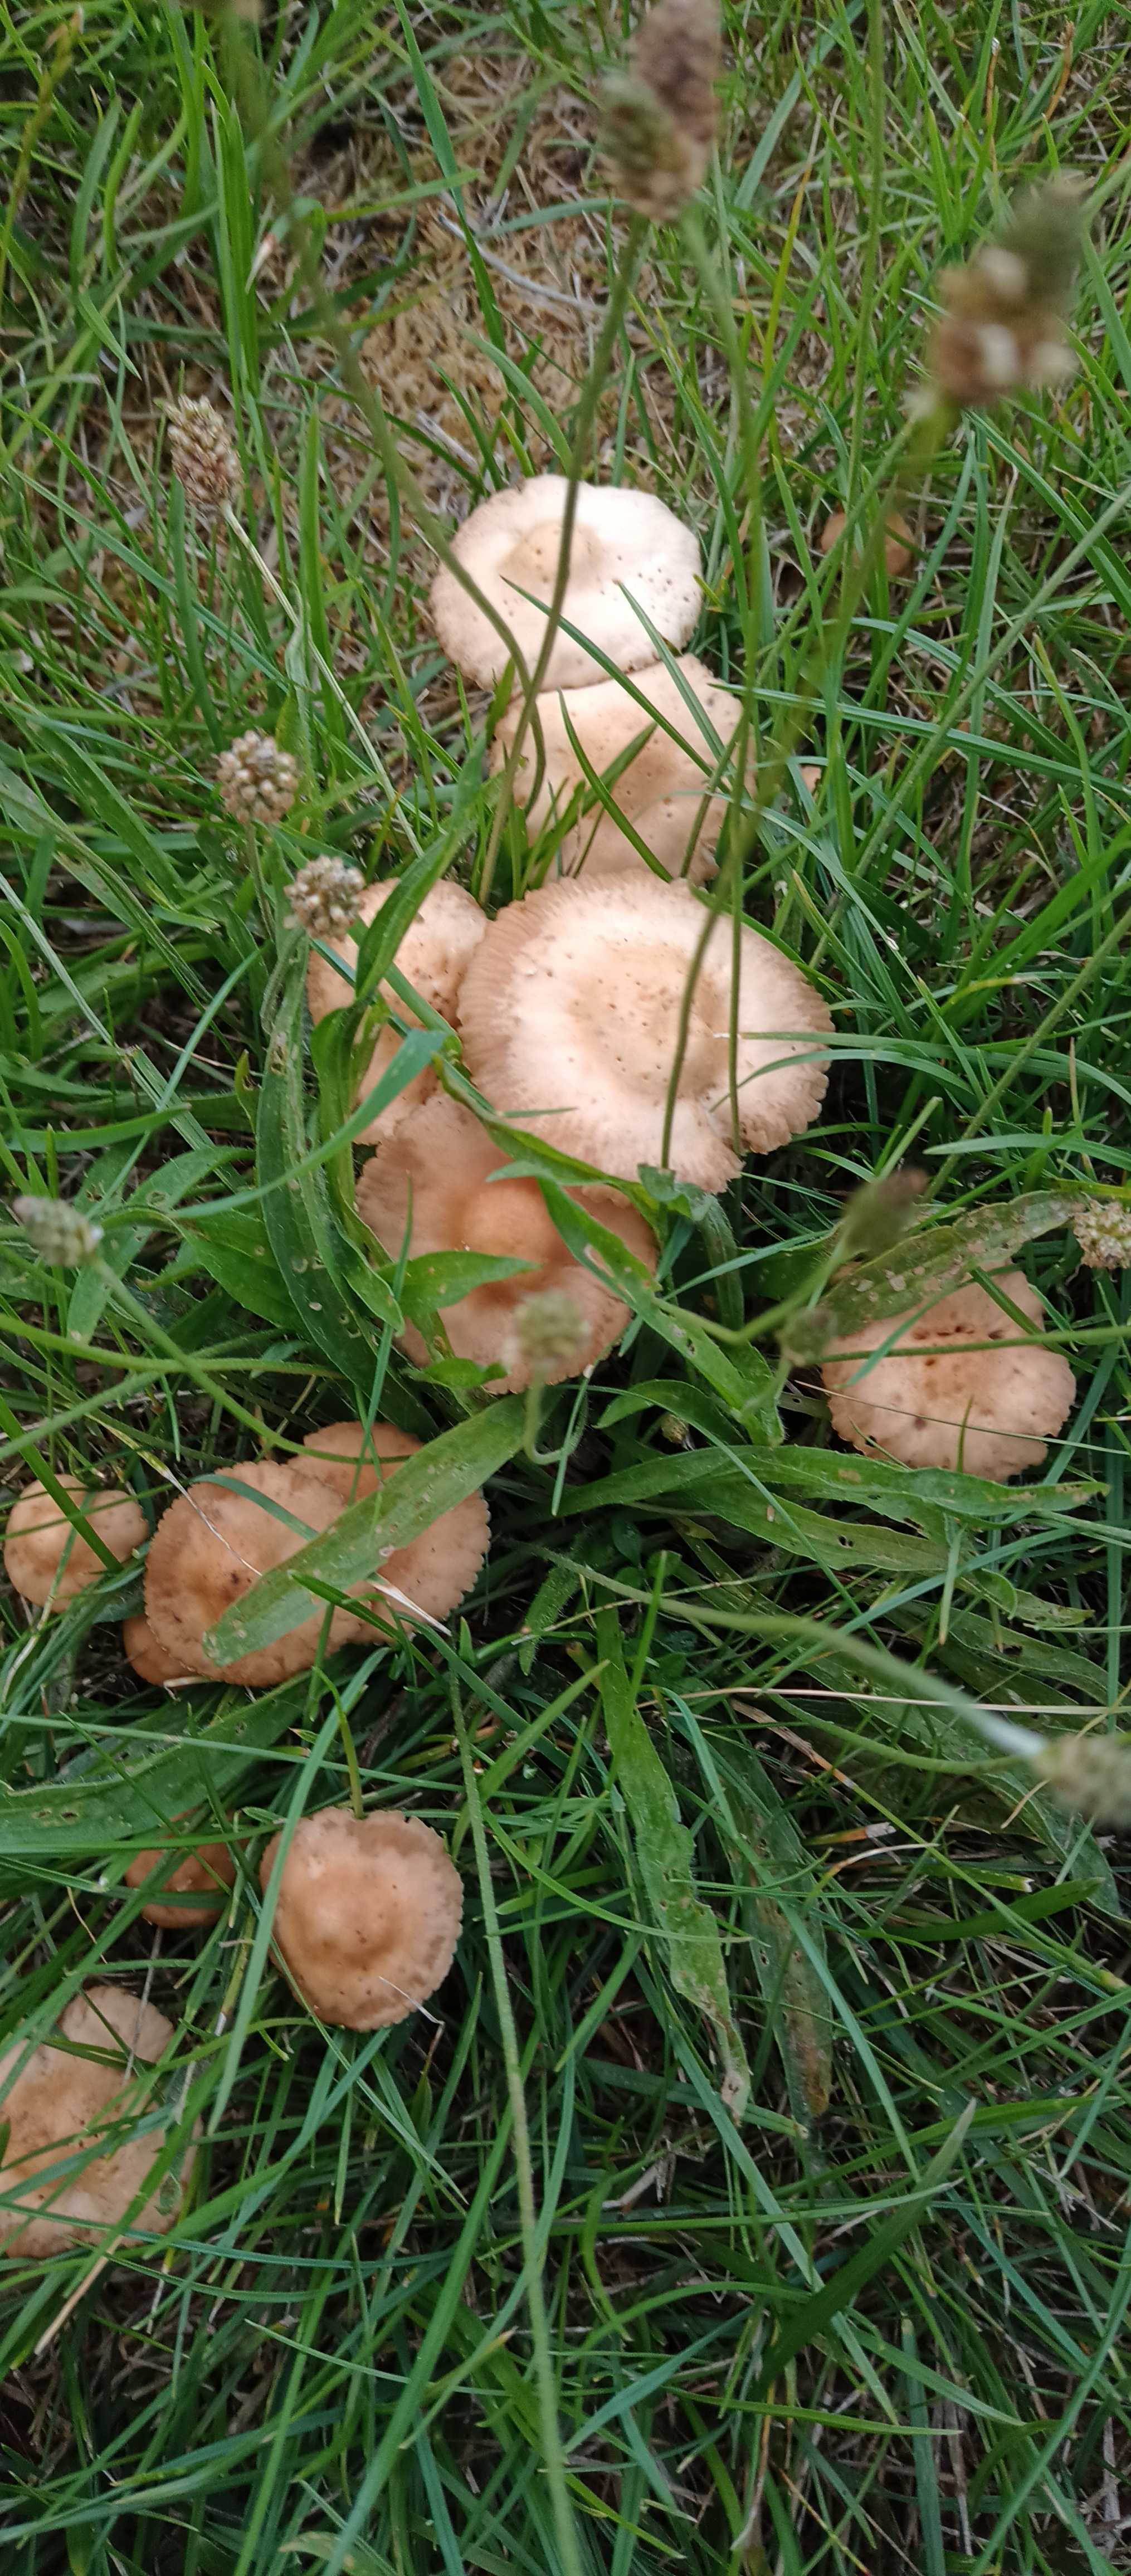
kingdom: Fungi
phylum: Basidiomycota
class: Agaricomycetes
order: Agaricales
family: Marasmiaceae
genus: Marasmius
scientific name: Marasmius oreades
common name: elledans-bruskhat
